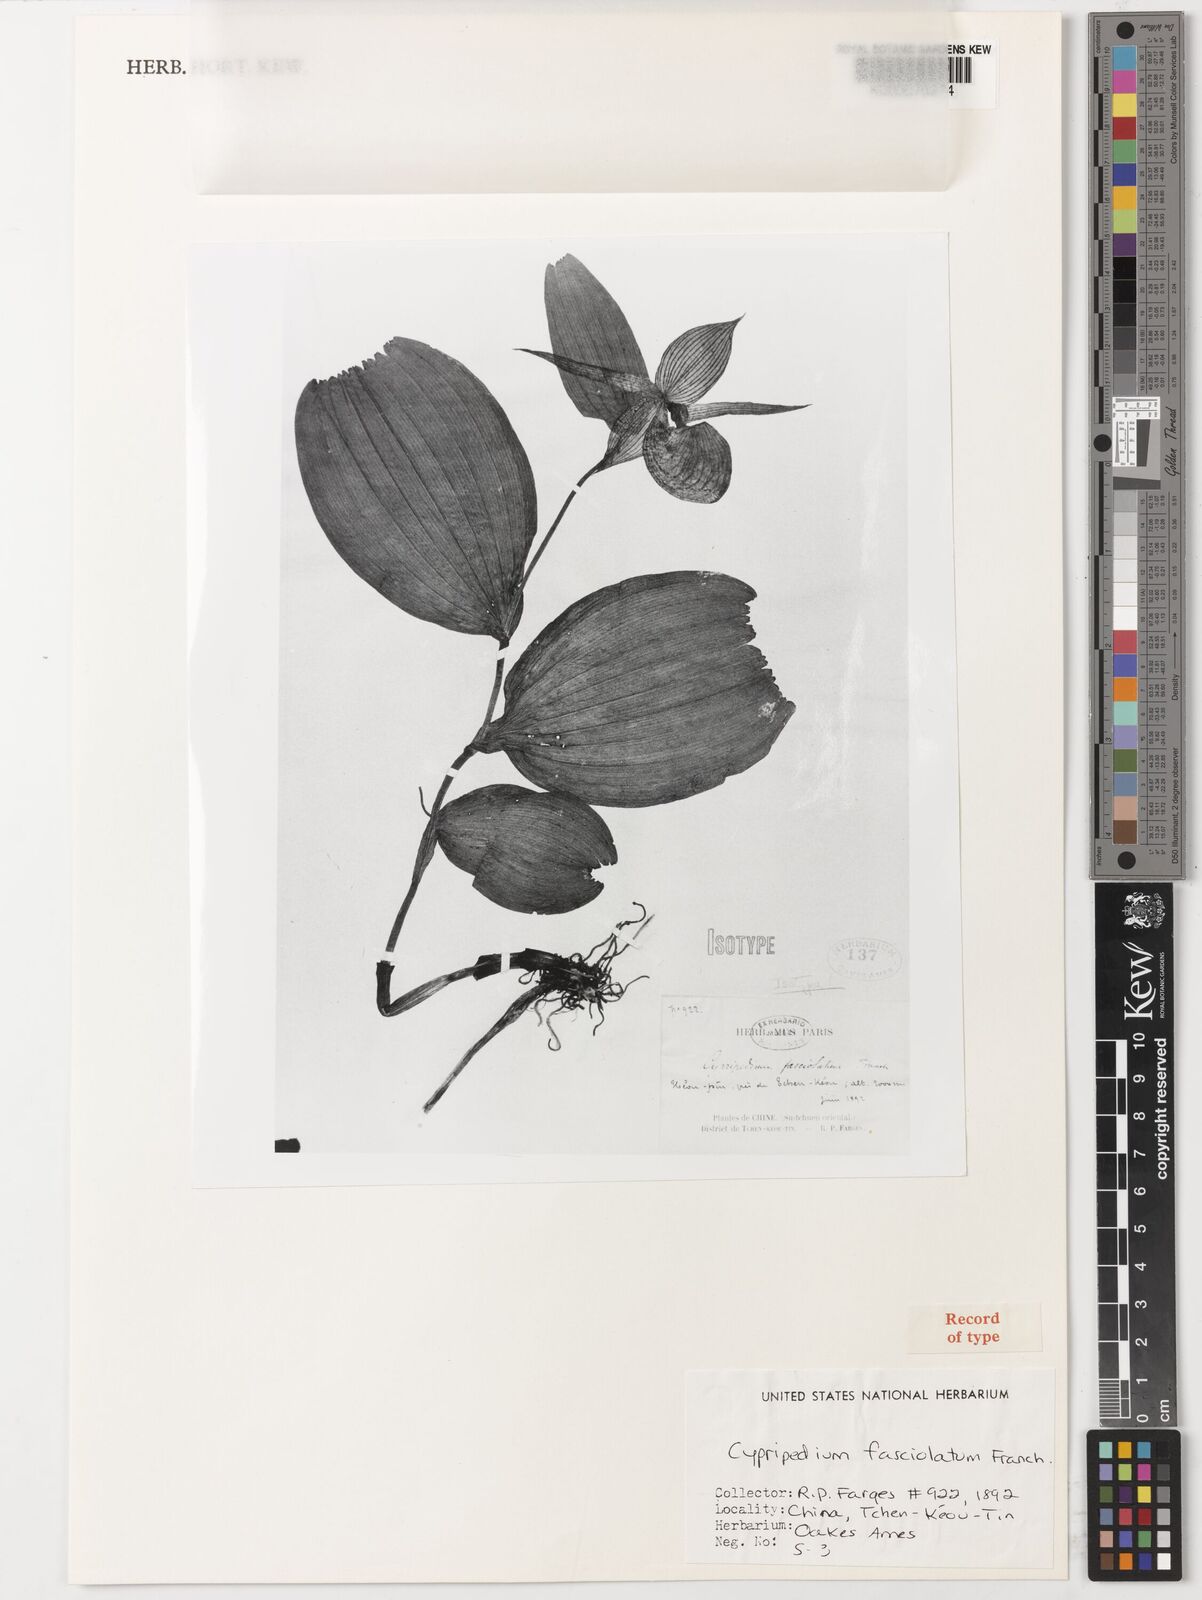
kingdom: Plantae
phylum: Tracheophyta
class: Liliopsida
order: Asparagales
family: Orchidaceae
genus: Cypripedium
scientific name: Cypripedium fasciolatum
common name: Striped lady slipper
